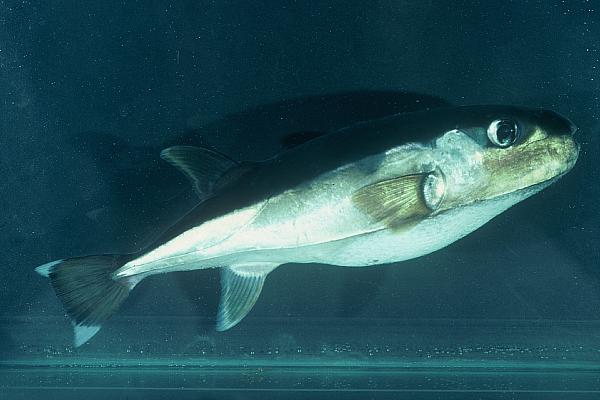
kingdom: Animalia
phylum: Chordata
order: Tetraodontiformes
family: Tetraodontidae
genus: Lagocephalus
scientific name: Lagocephalus guentheri
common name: Diamondback puffer
